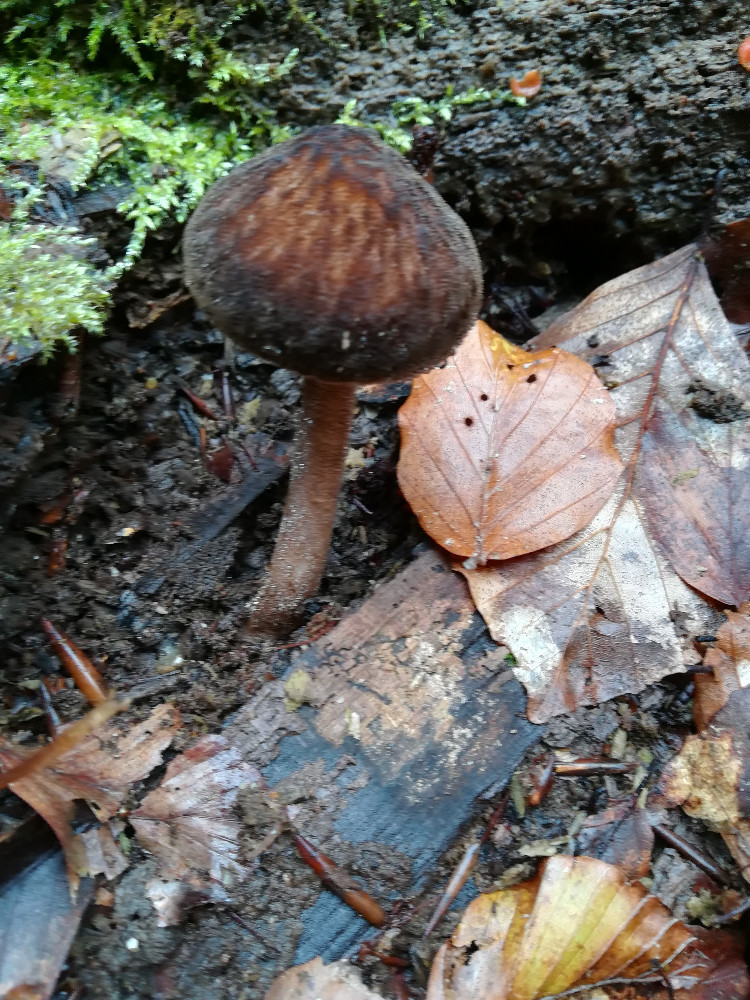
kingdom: Fungi
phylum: Basidiomycota
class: Agaricomycetes
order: Agaricales
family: Pluteaceae
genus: Pluteus
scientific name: Pluteus umbrosus
